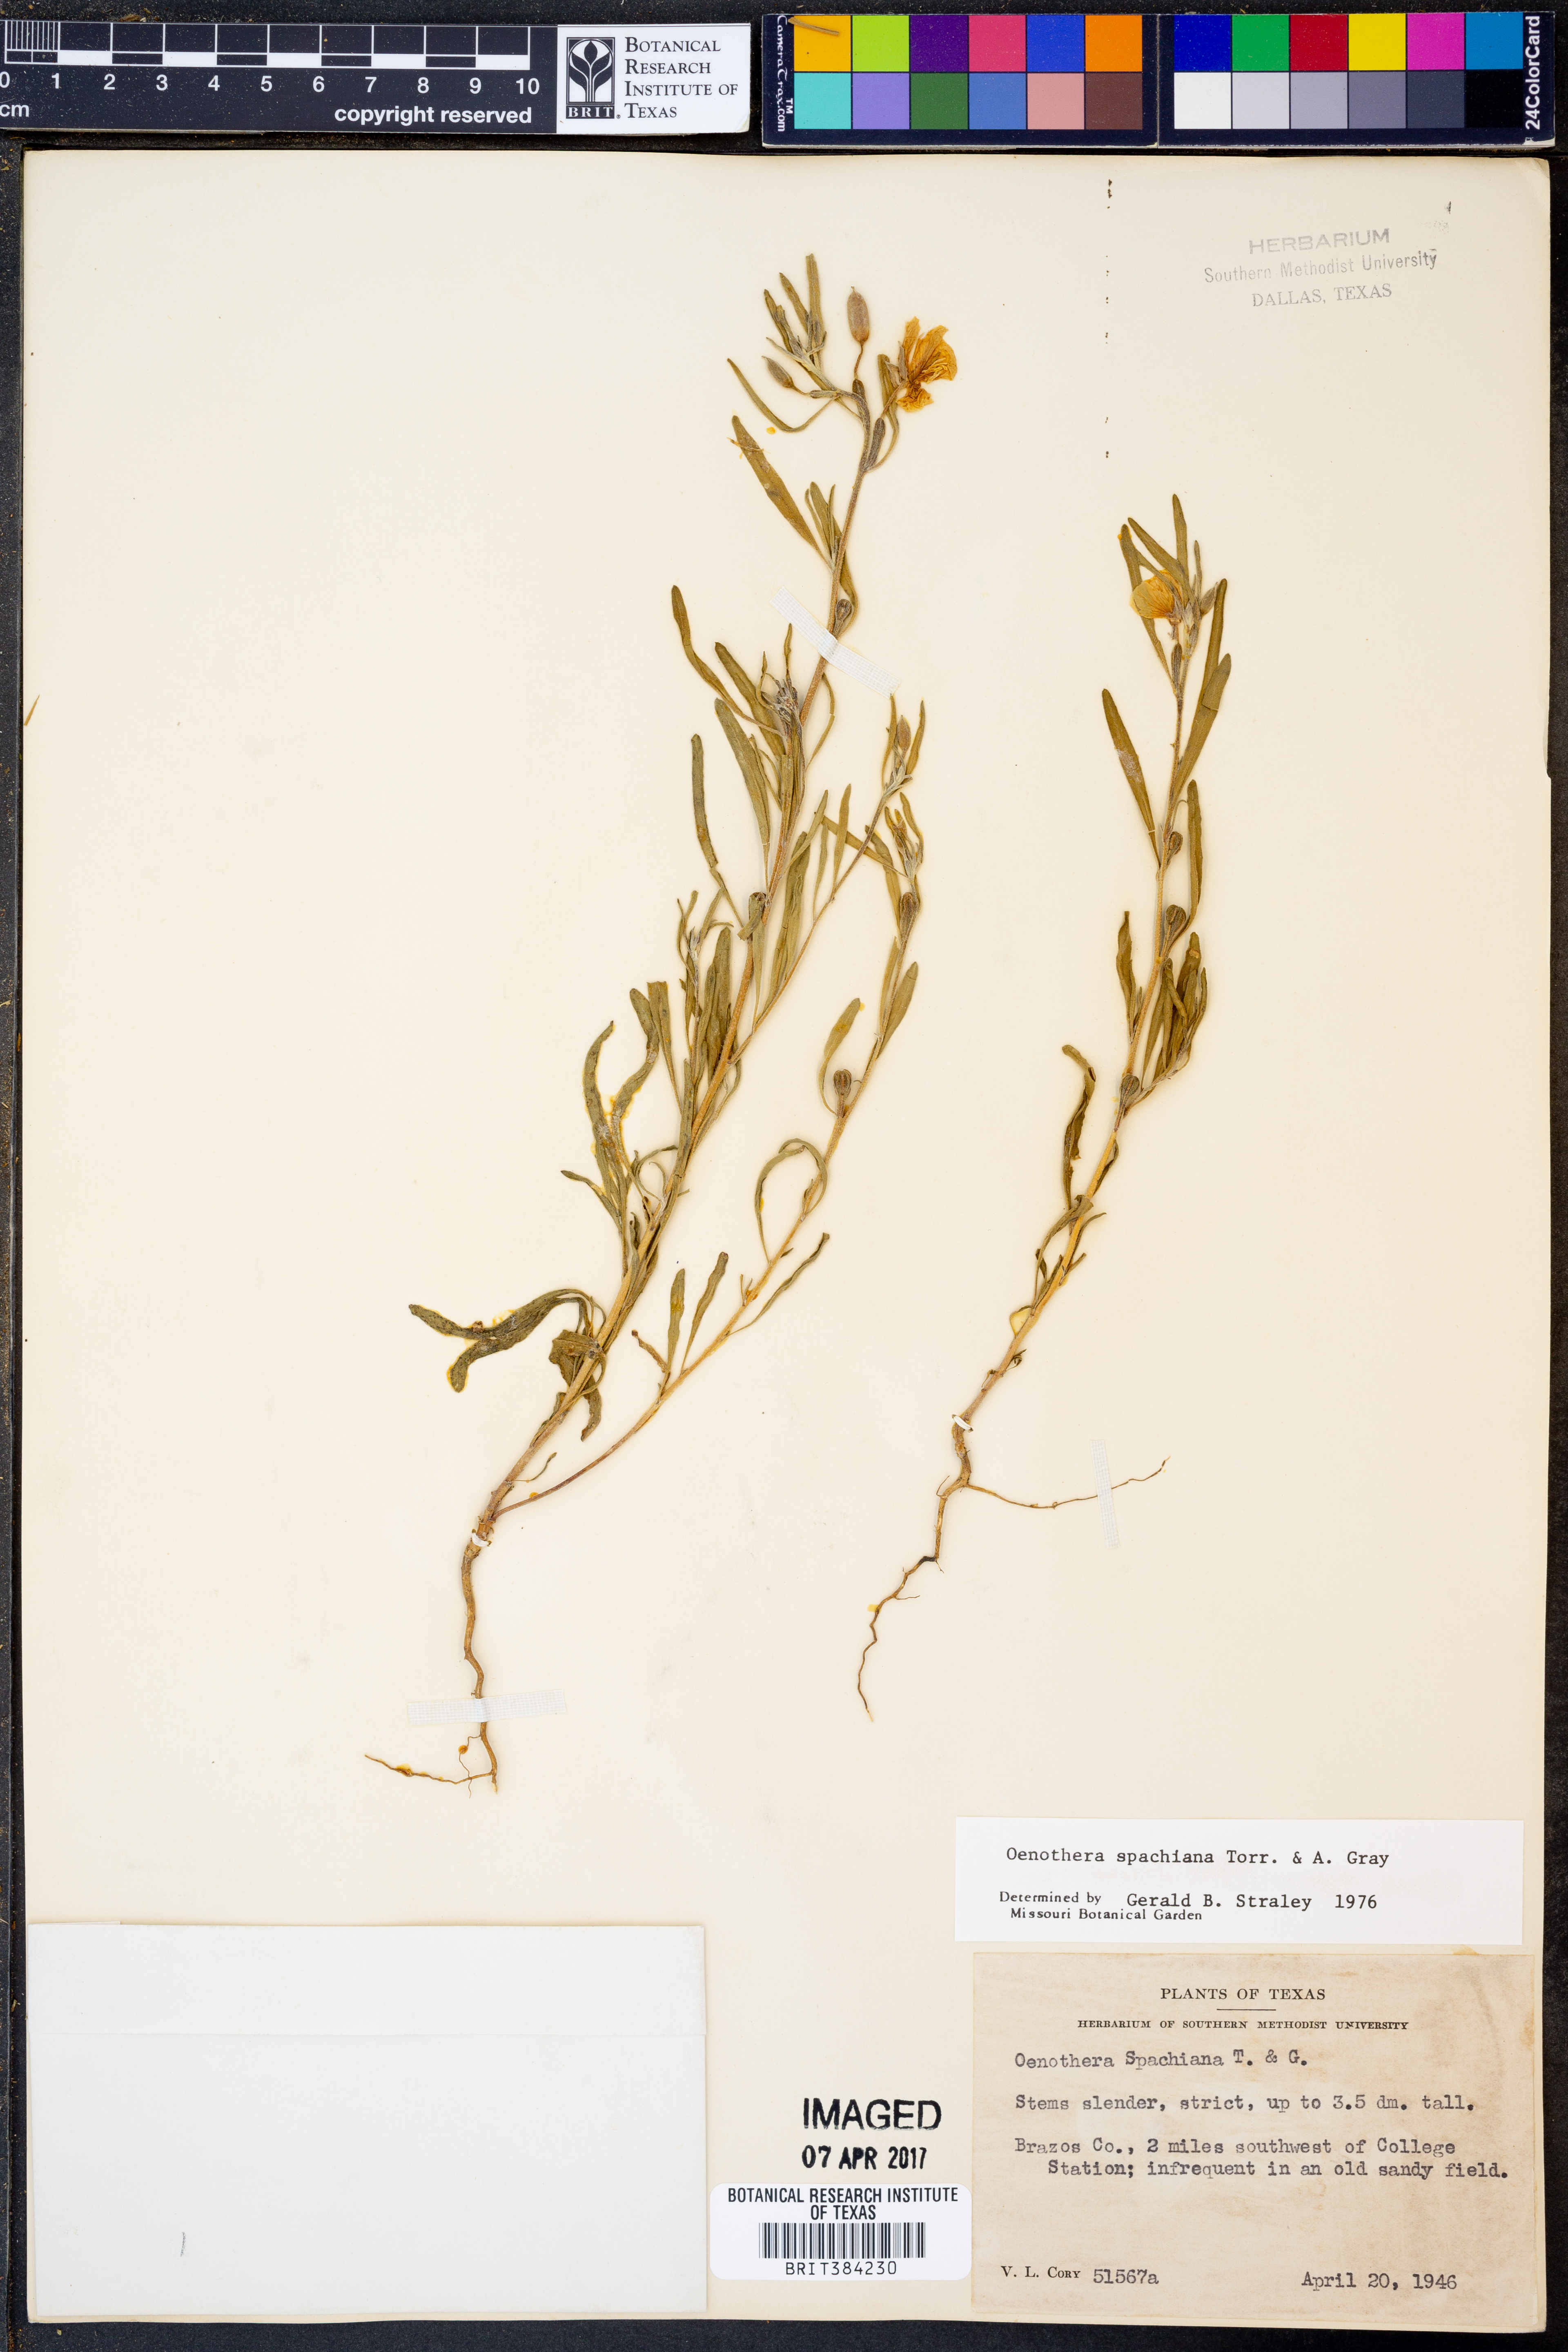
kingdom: Plantae
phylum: Tracheophyta
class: Magnoliopsida
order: Myrtales
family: Onagraceae
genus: Oenothera
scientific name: Oenothera spachiana
